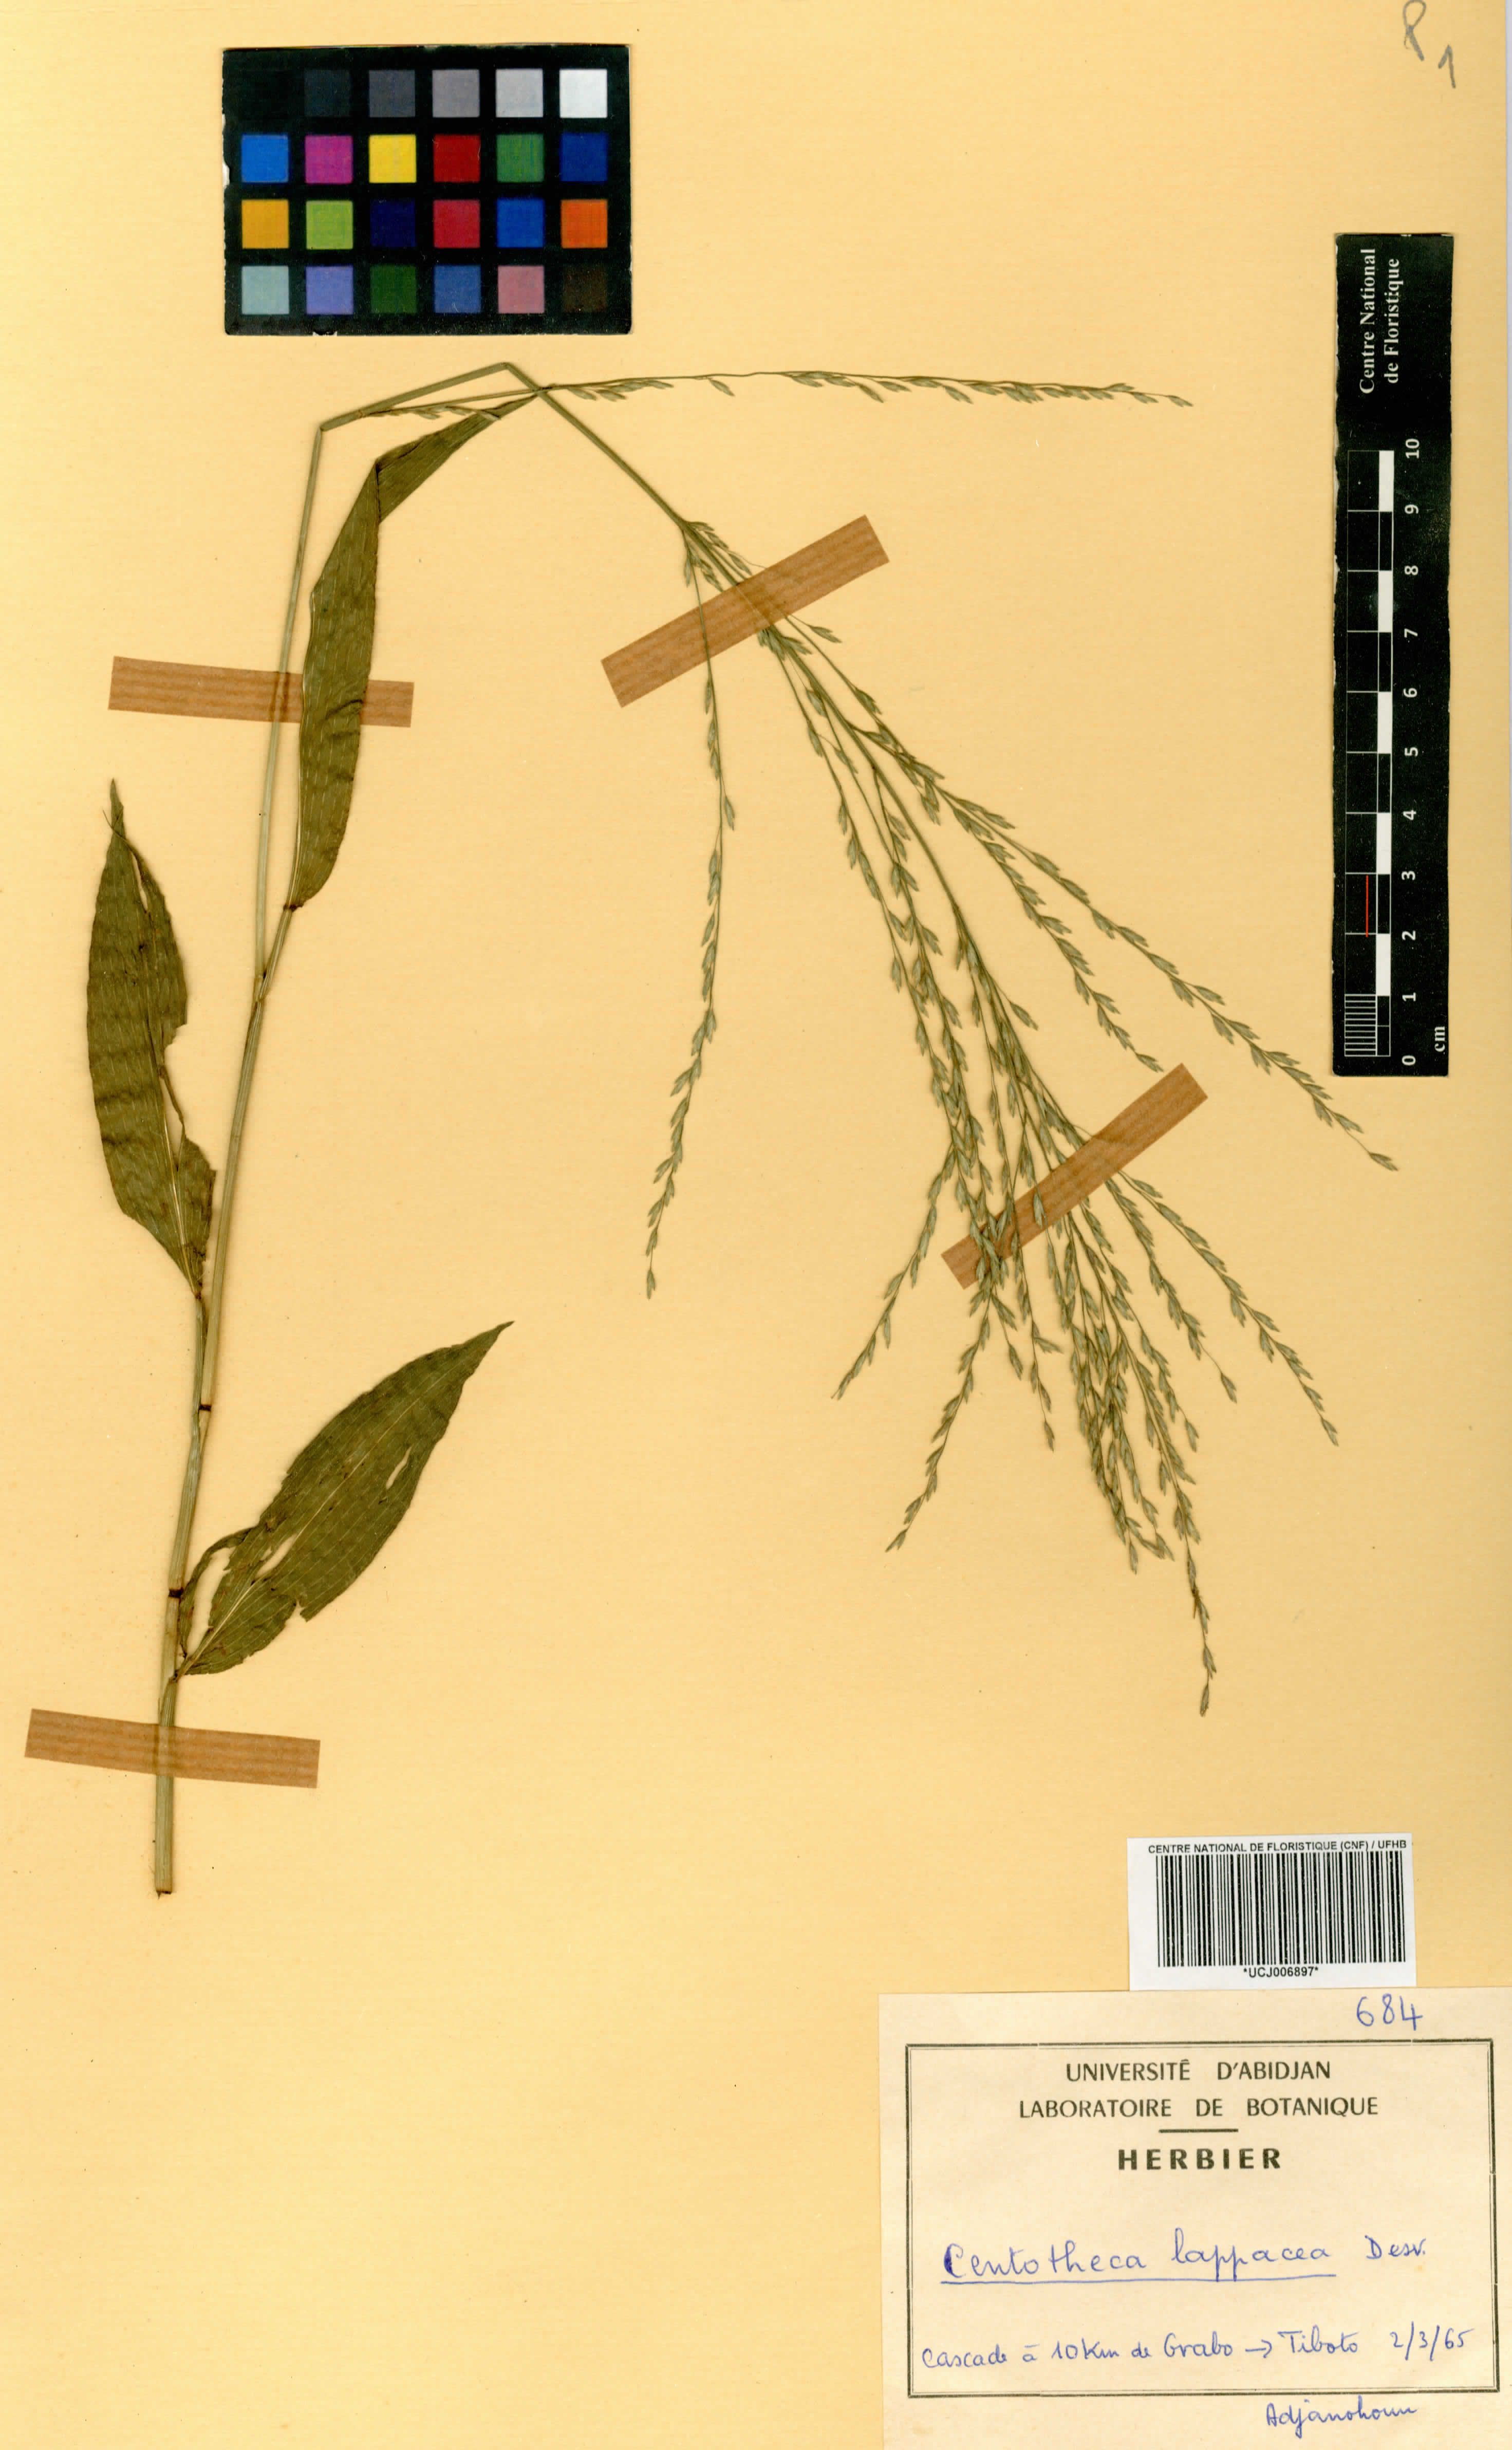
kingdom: Plantae
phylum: Tracheophyta
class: Liliopsida
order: Poales
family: Poaceae
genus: Centotheca
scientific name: Centotheca lappacea
